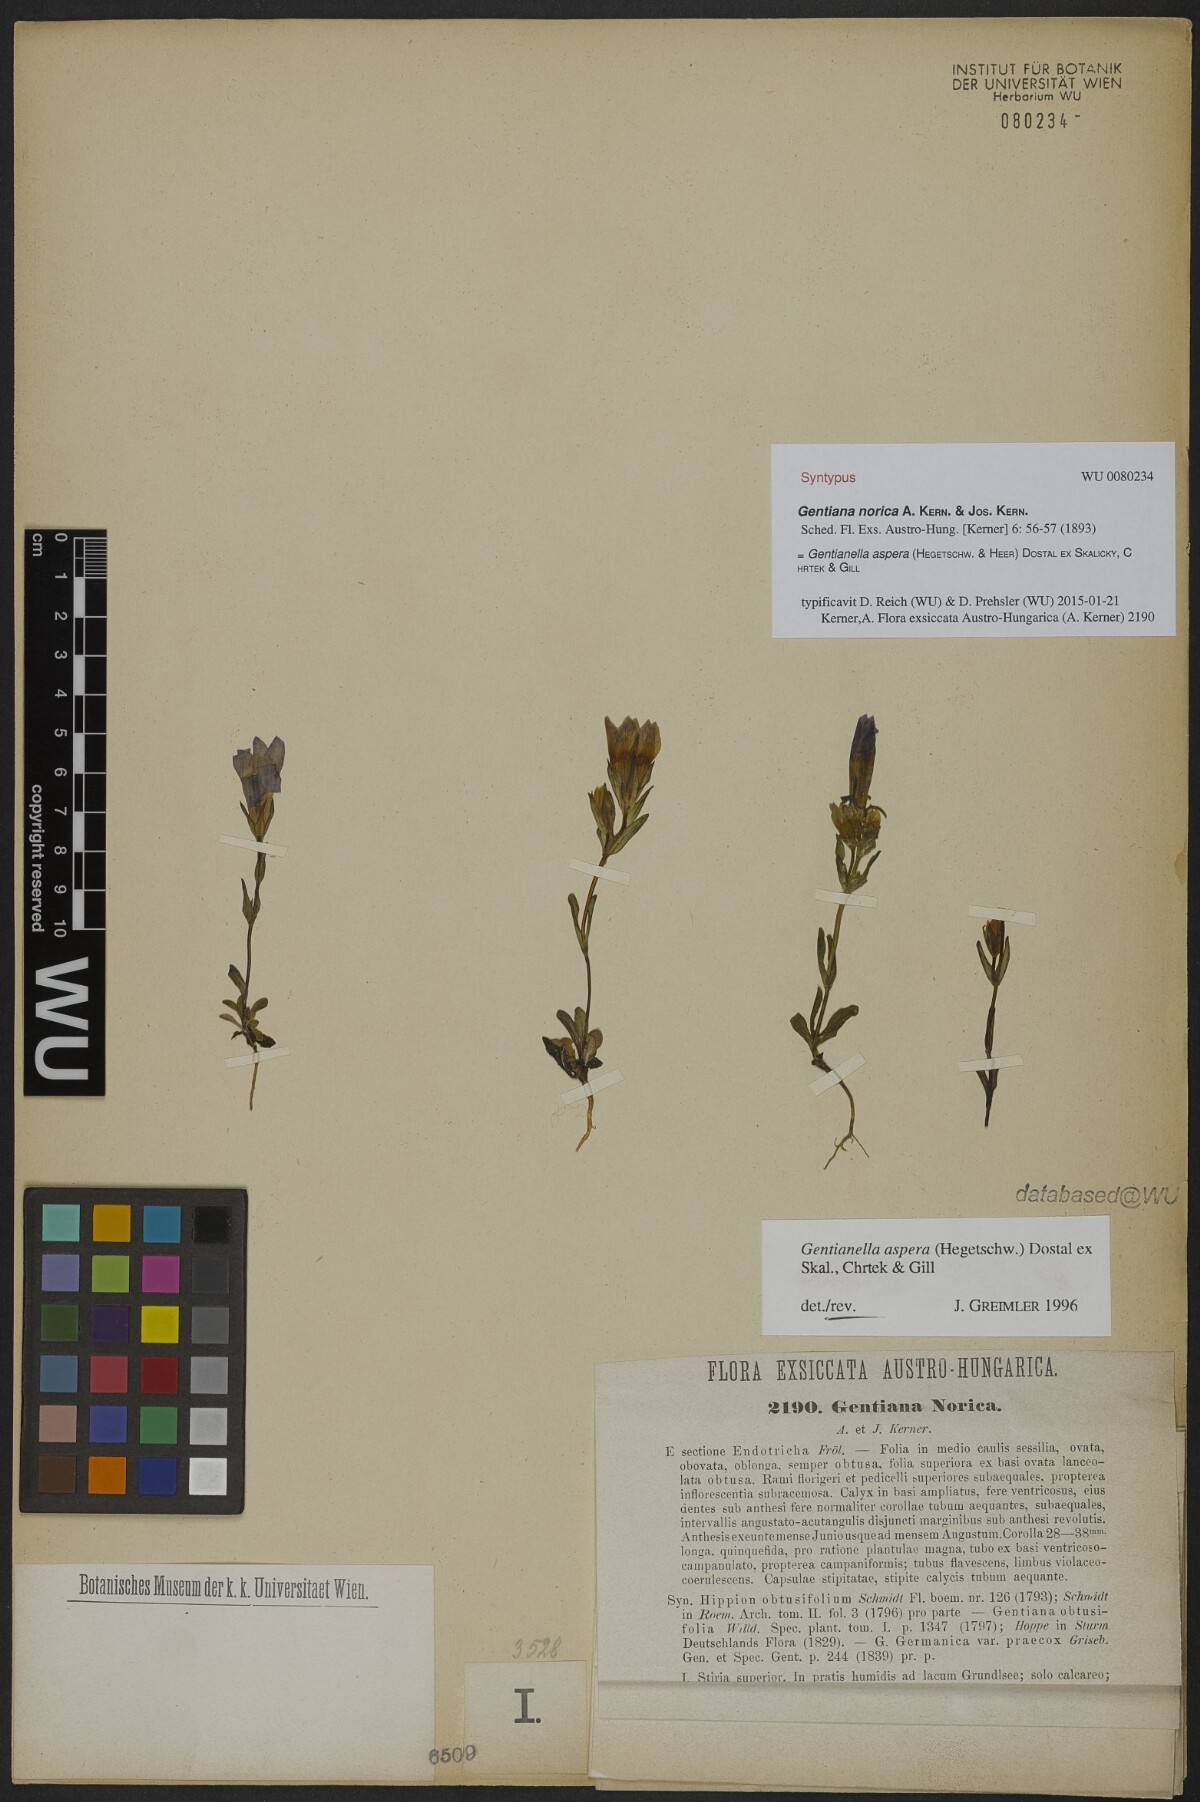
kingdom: Plantae
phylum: Tracheophyta
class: Magnoliopsida
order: Gentianales
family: Gentianaceae
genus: Gentianella
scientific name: Gentianella obtusifolia
